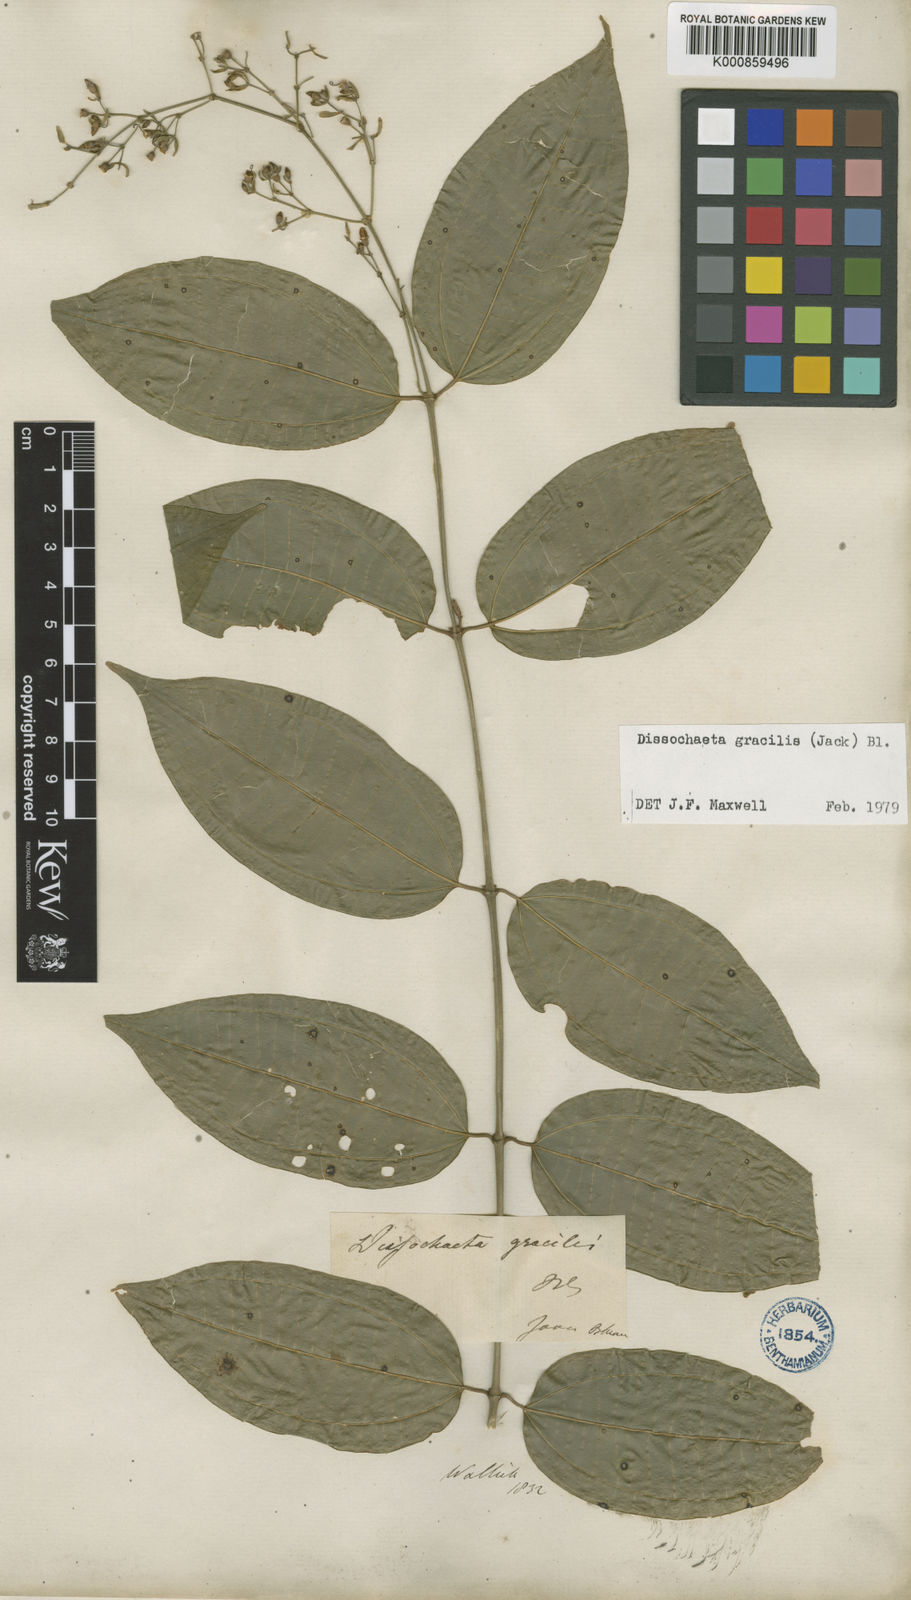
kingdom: Plantae
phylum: Tracheophyta
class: Magnoliopsida
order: Myrtales
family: Melastomataceae
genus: Dissochaeta
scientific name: Dissochaeta gracilis
